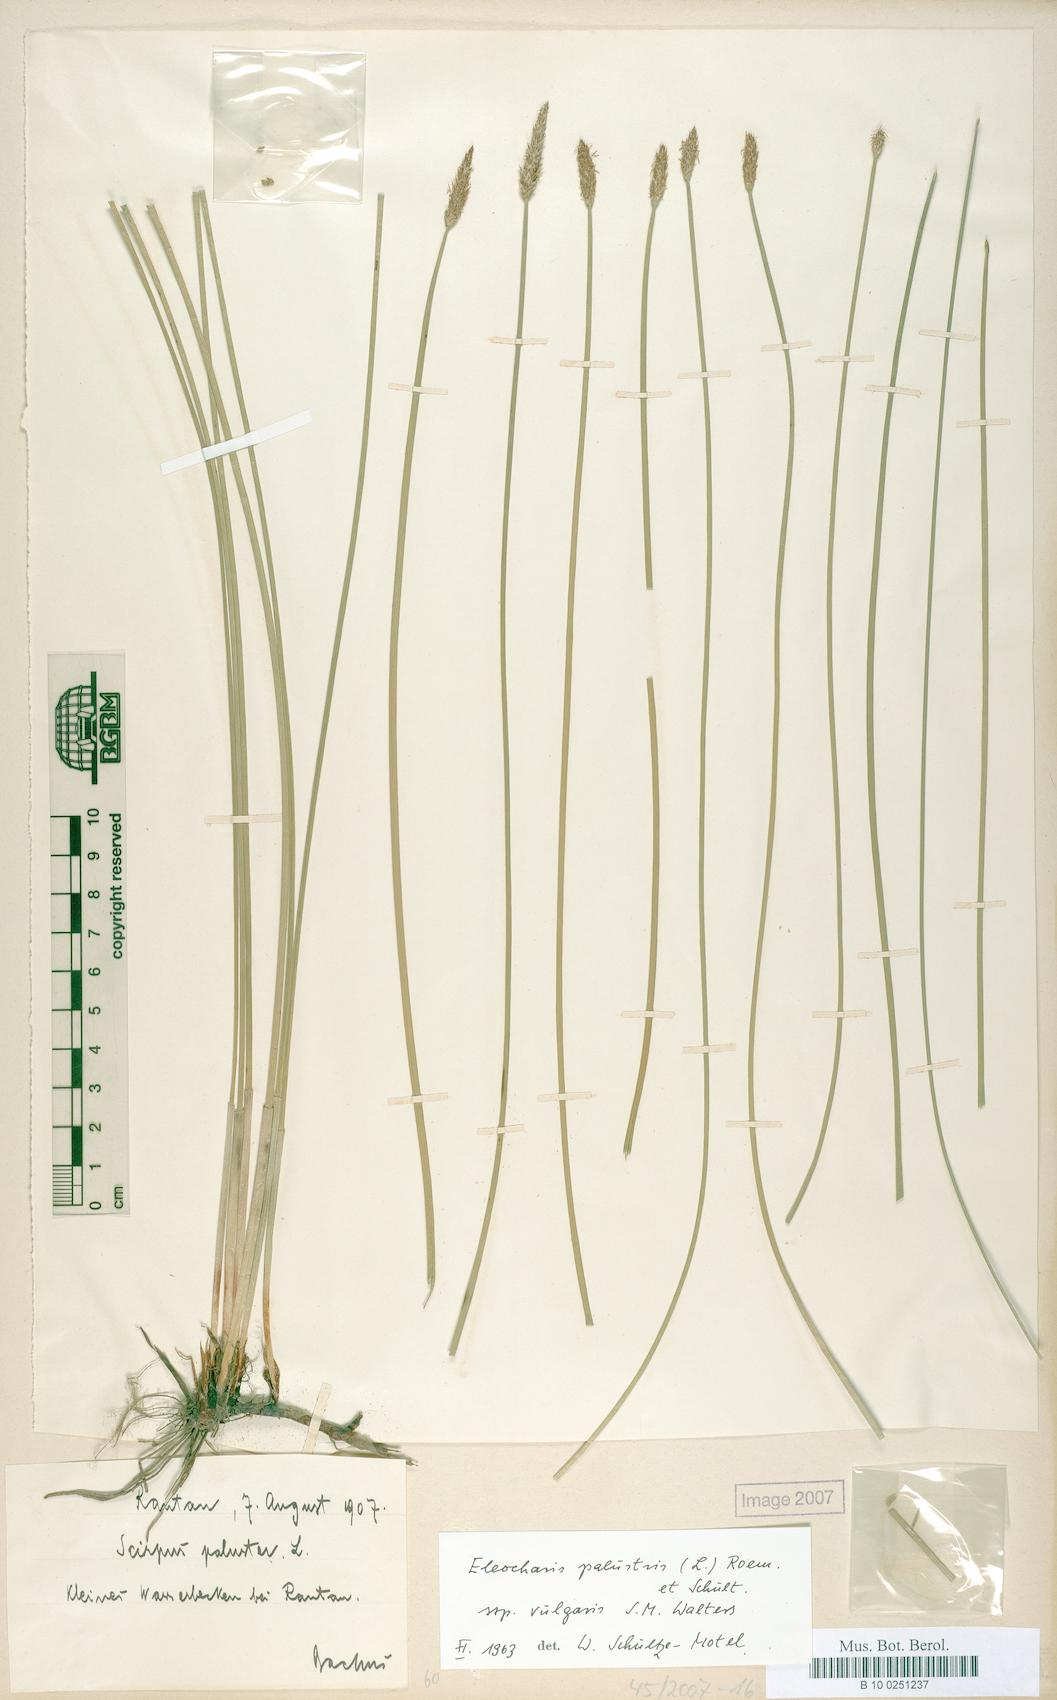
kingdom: Plantae
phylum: Tracheophyta
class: Liliopsida
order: Poales
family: Cyperaceae
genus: Eleocharis
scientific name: Eleocharis palustris
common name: Common spike-rush
